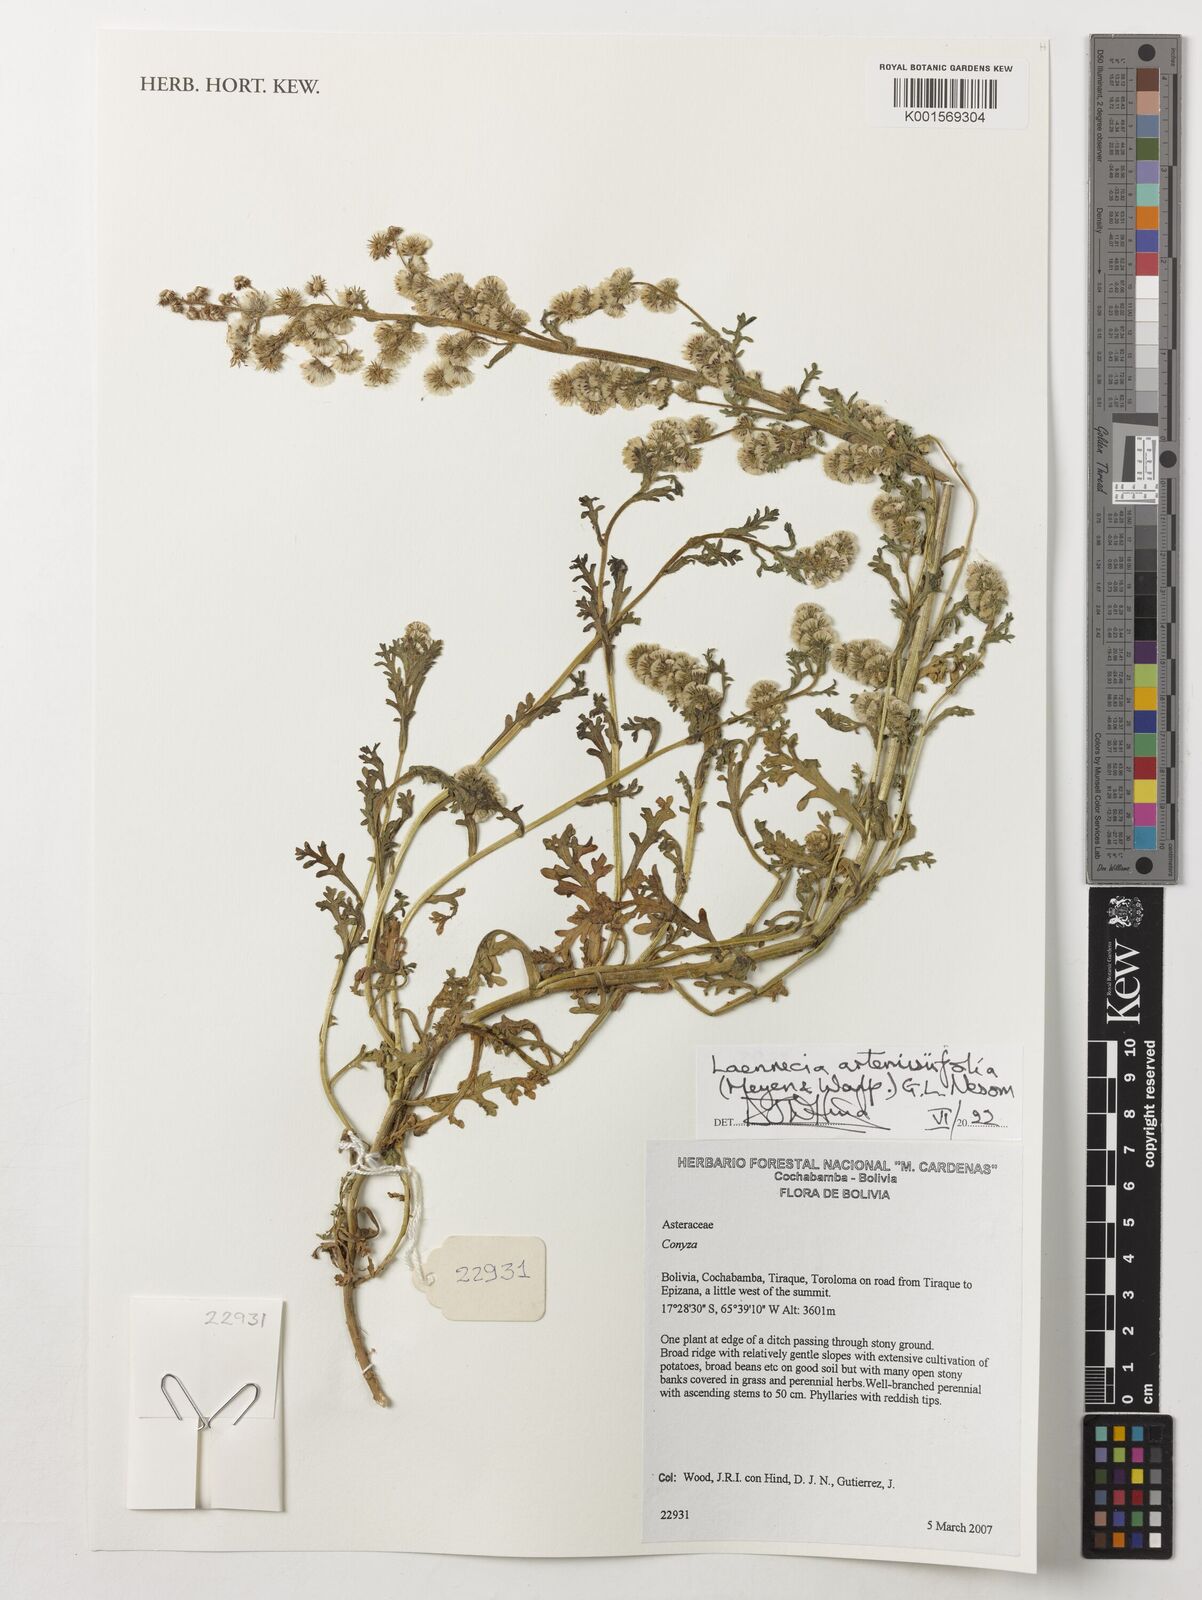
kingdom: Plantae
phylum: Tracheophyta
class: Magnoliopsida
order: Asterales
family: Asteraceae
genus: Laennecia
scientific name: Laennecia artemisiifolia
